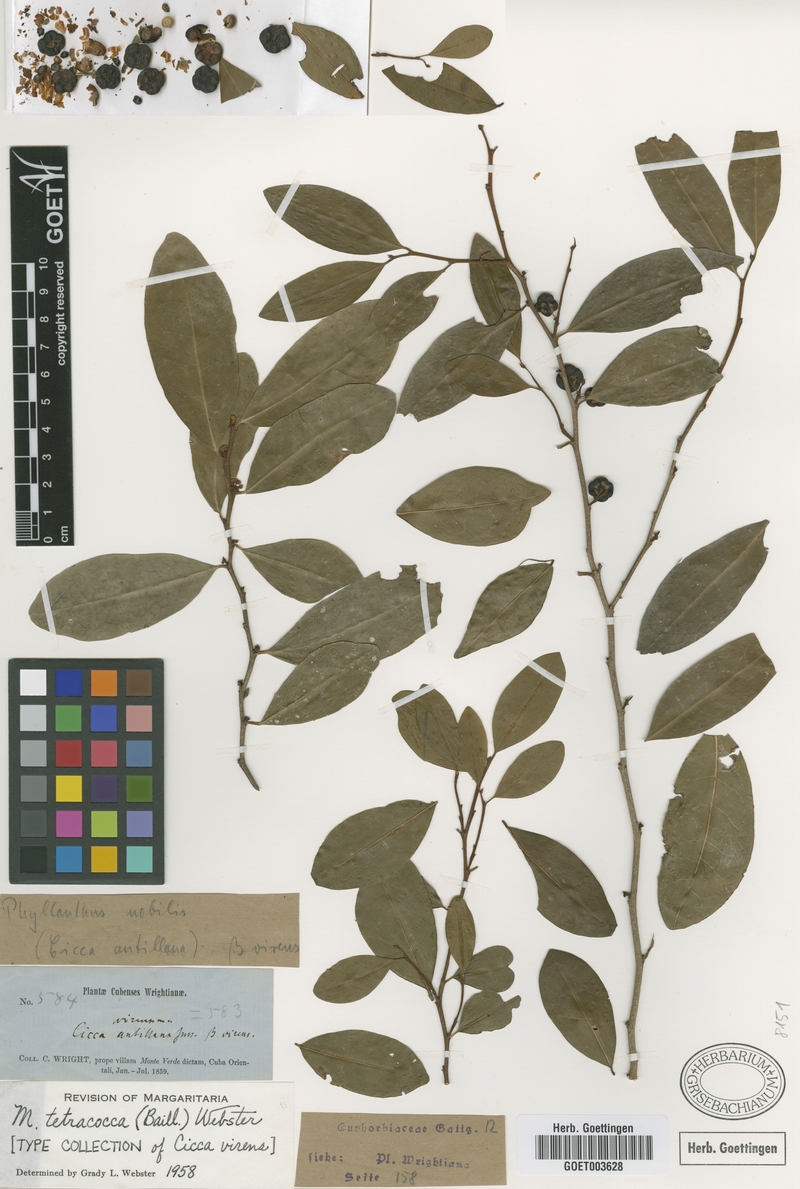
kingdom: Plantae
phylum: Tracheophyta
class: Magnoliopsida
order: Malpighiales
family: Phyllanthaceae
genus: Margaritaria
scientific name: Margaritaria tetracocca
